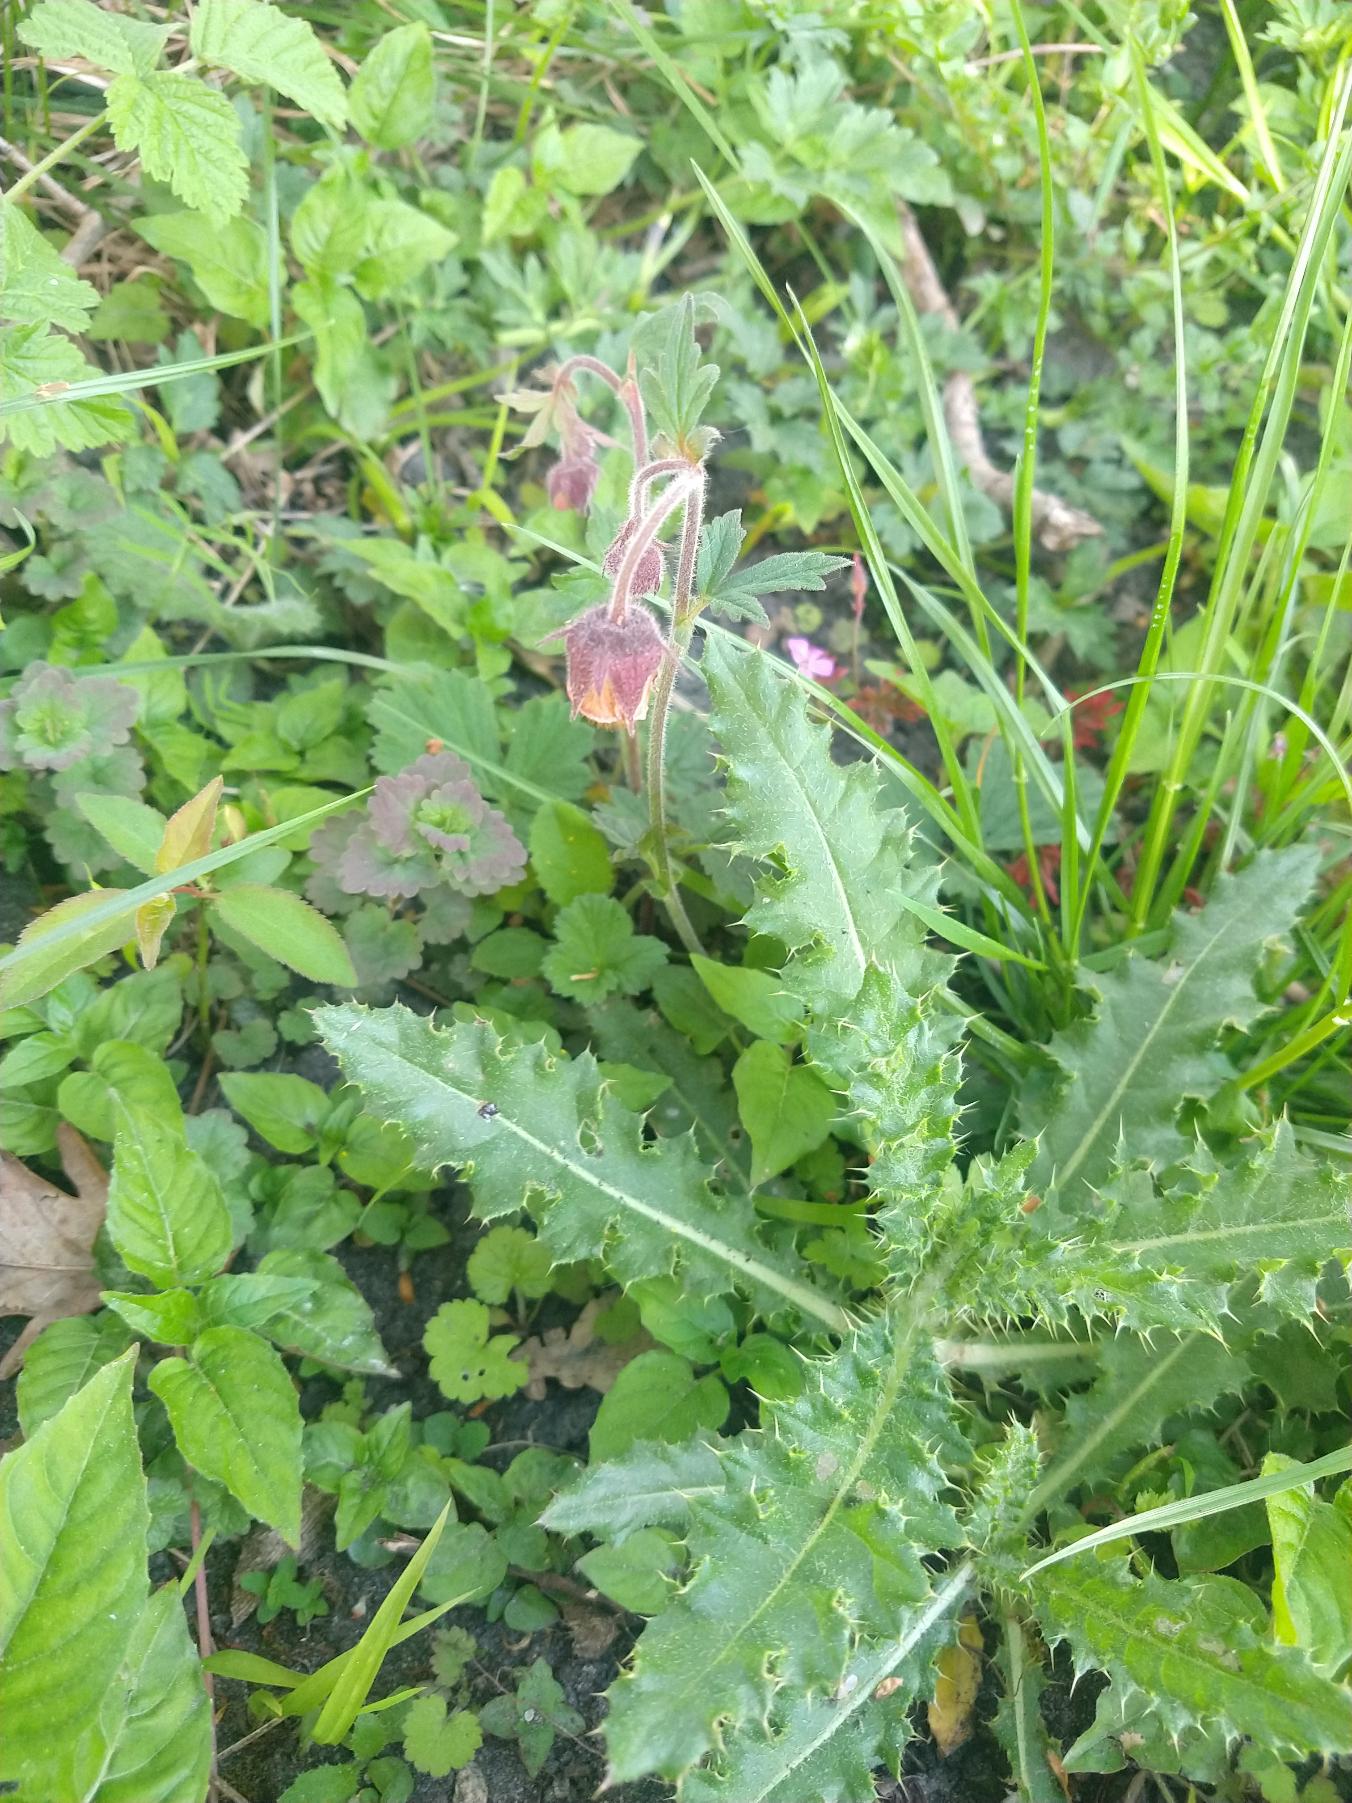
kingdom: Plantae
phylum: Tracheophyta
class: Magnoliopsida
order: Rosales
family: Rosaceae
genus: Geum
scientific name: Geum rivale
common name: Eng-nellikerod
